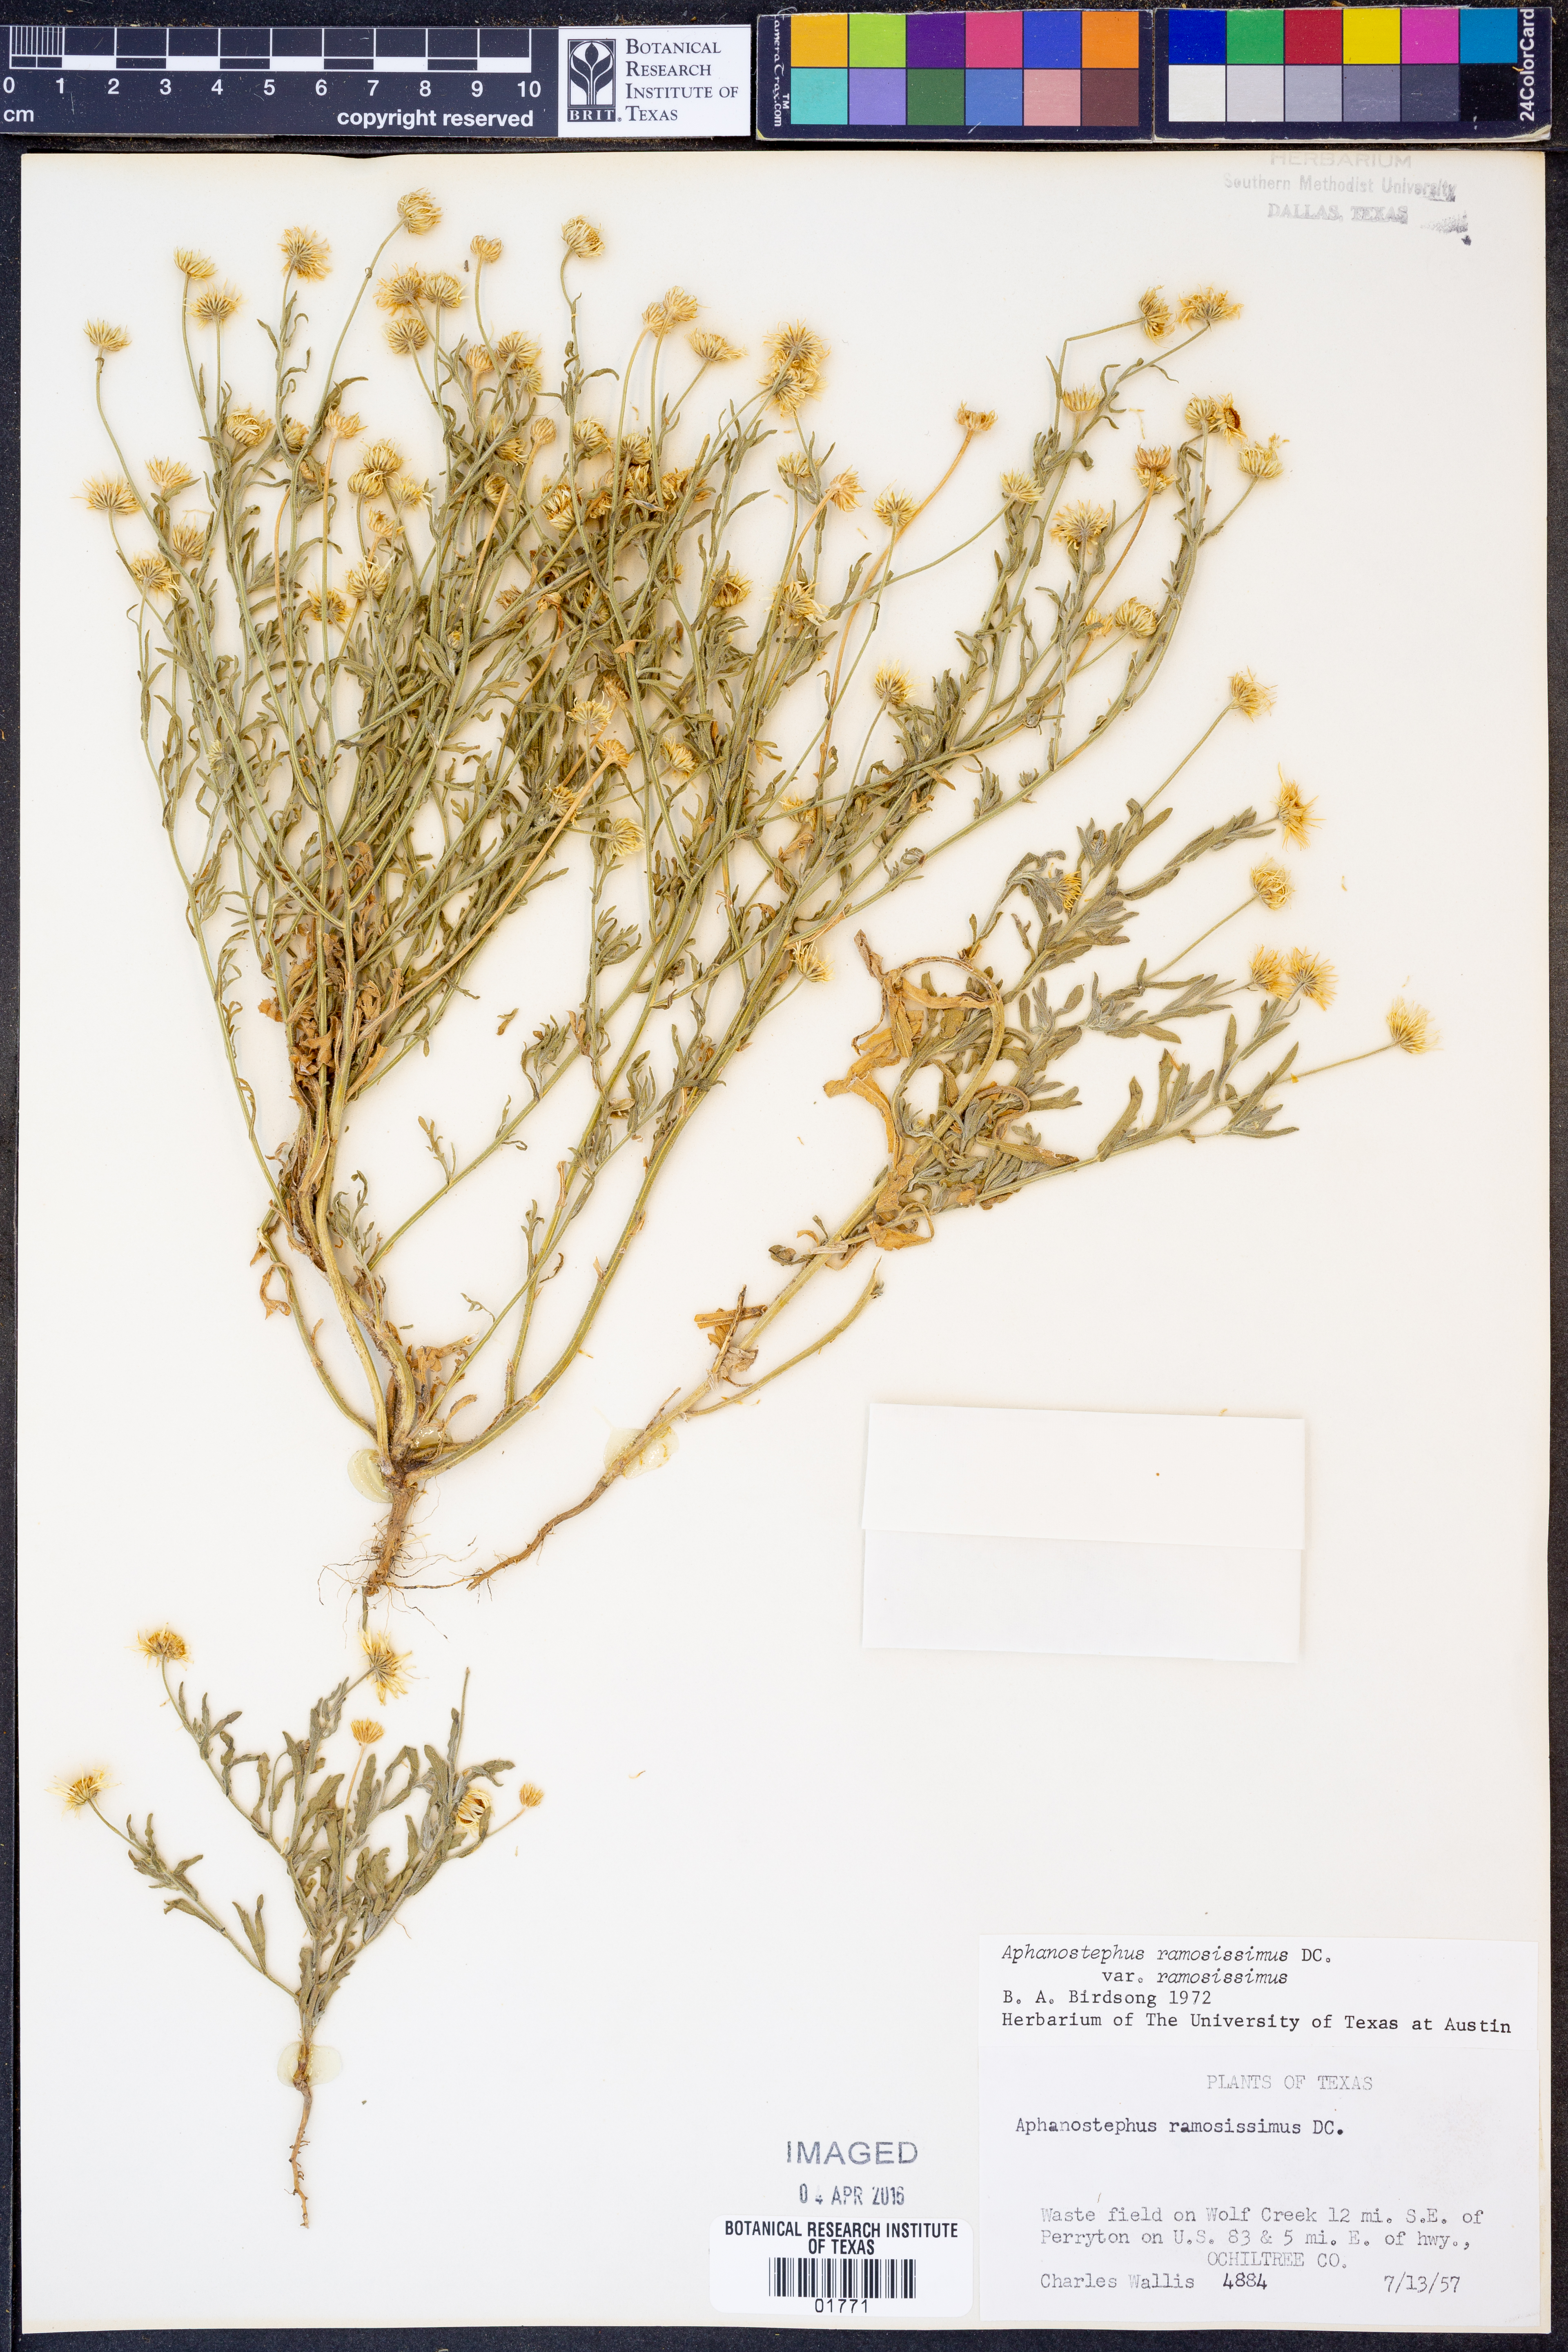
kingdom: Plantae
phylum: Tracheophyta
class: Magnoliopsida
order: Asterales
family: Asteraceae
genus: Aphanostephus
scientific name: Aphanostephus ramosissimus
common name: Plains lazy daisy
